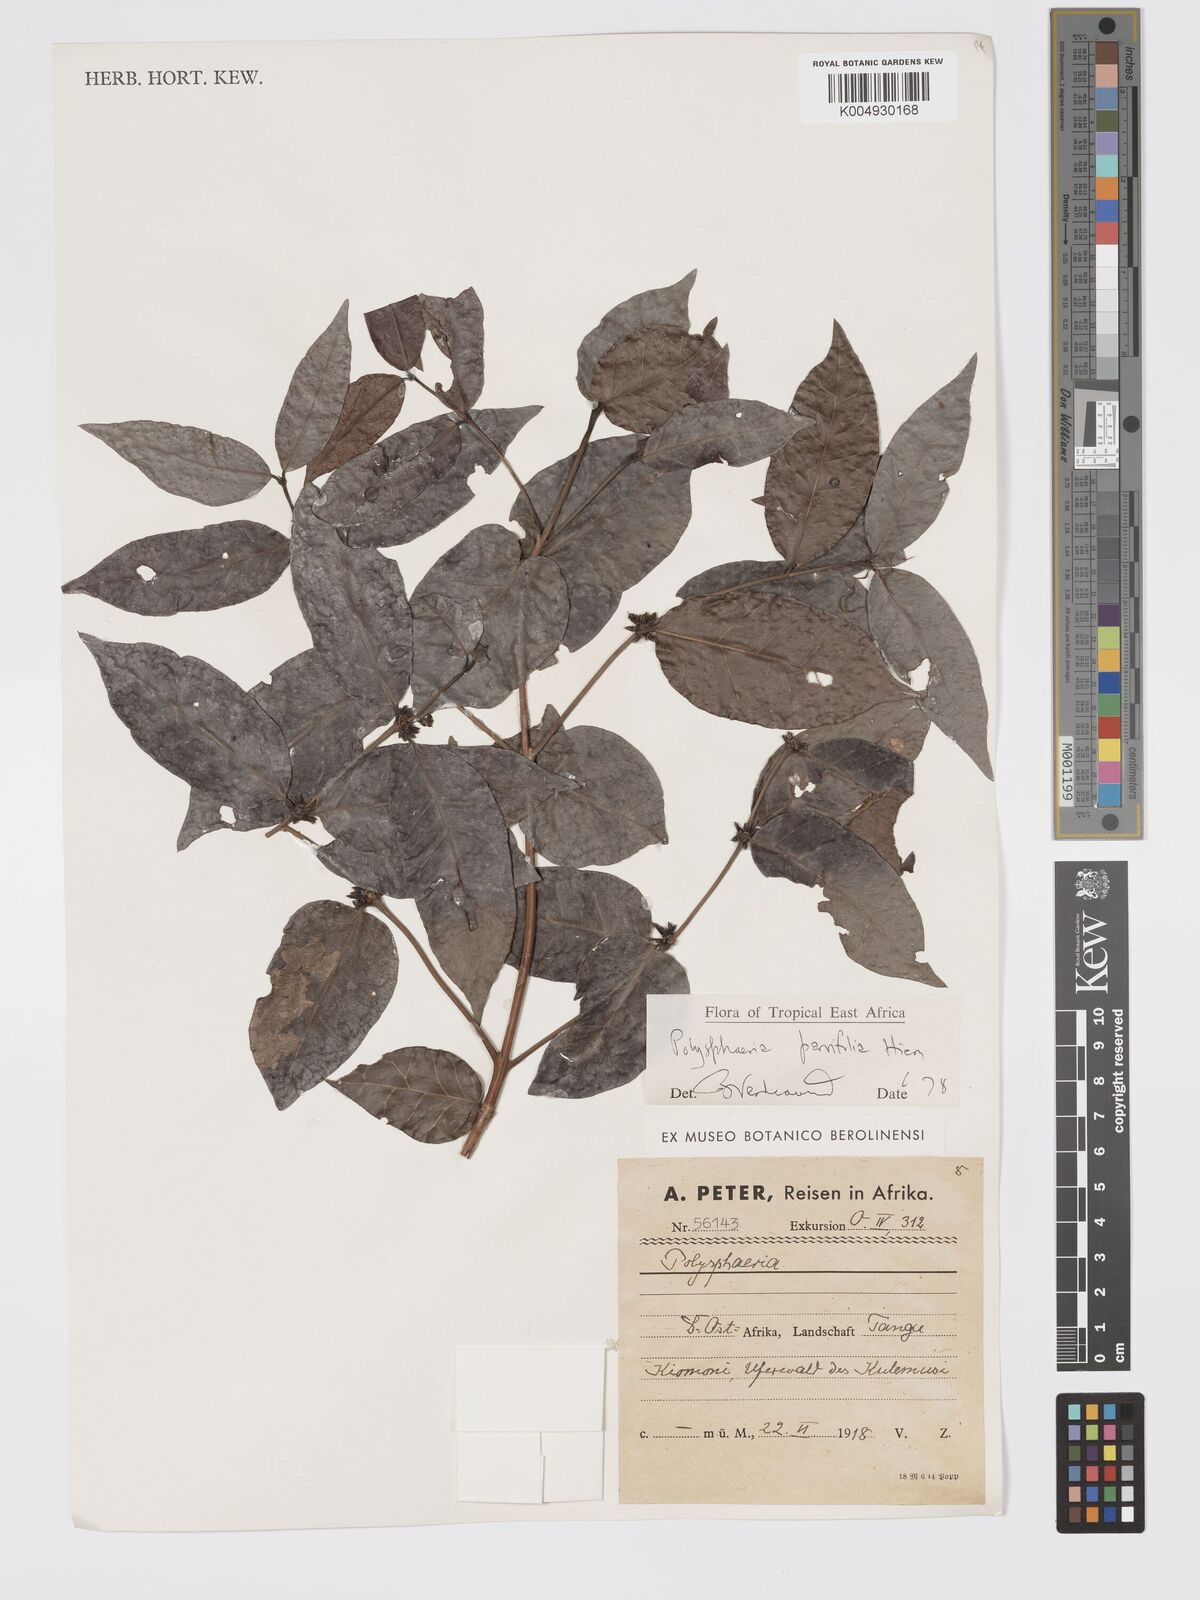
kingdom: Plantae
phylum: Tracheophyta
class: Magnoliopsida
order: Gentianales
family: Rubiaceae
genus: Polysphaeria
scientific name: Polysphaeria parvifolia
